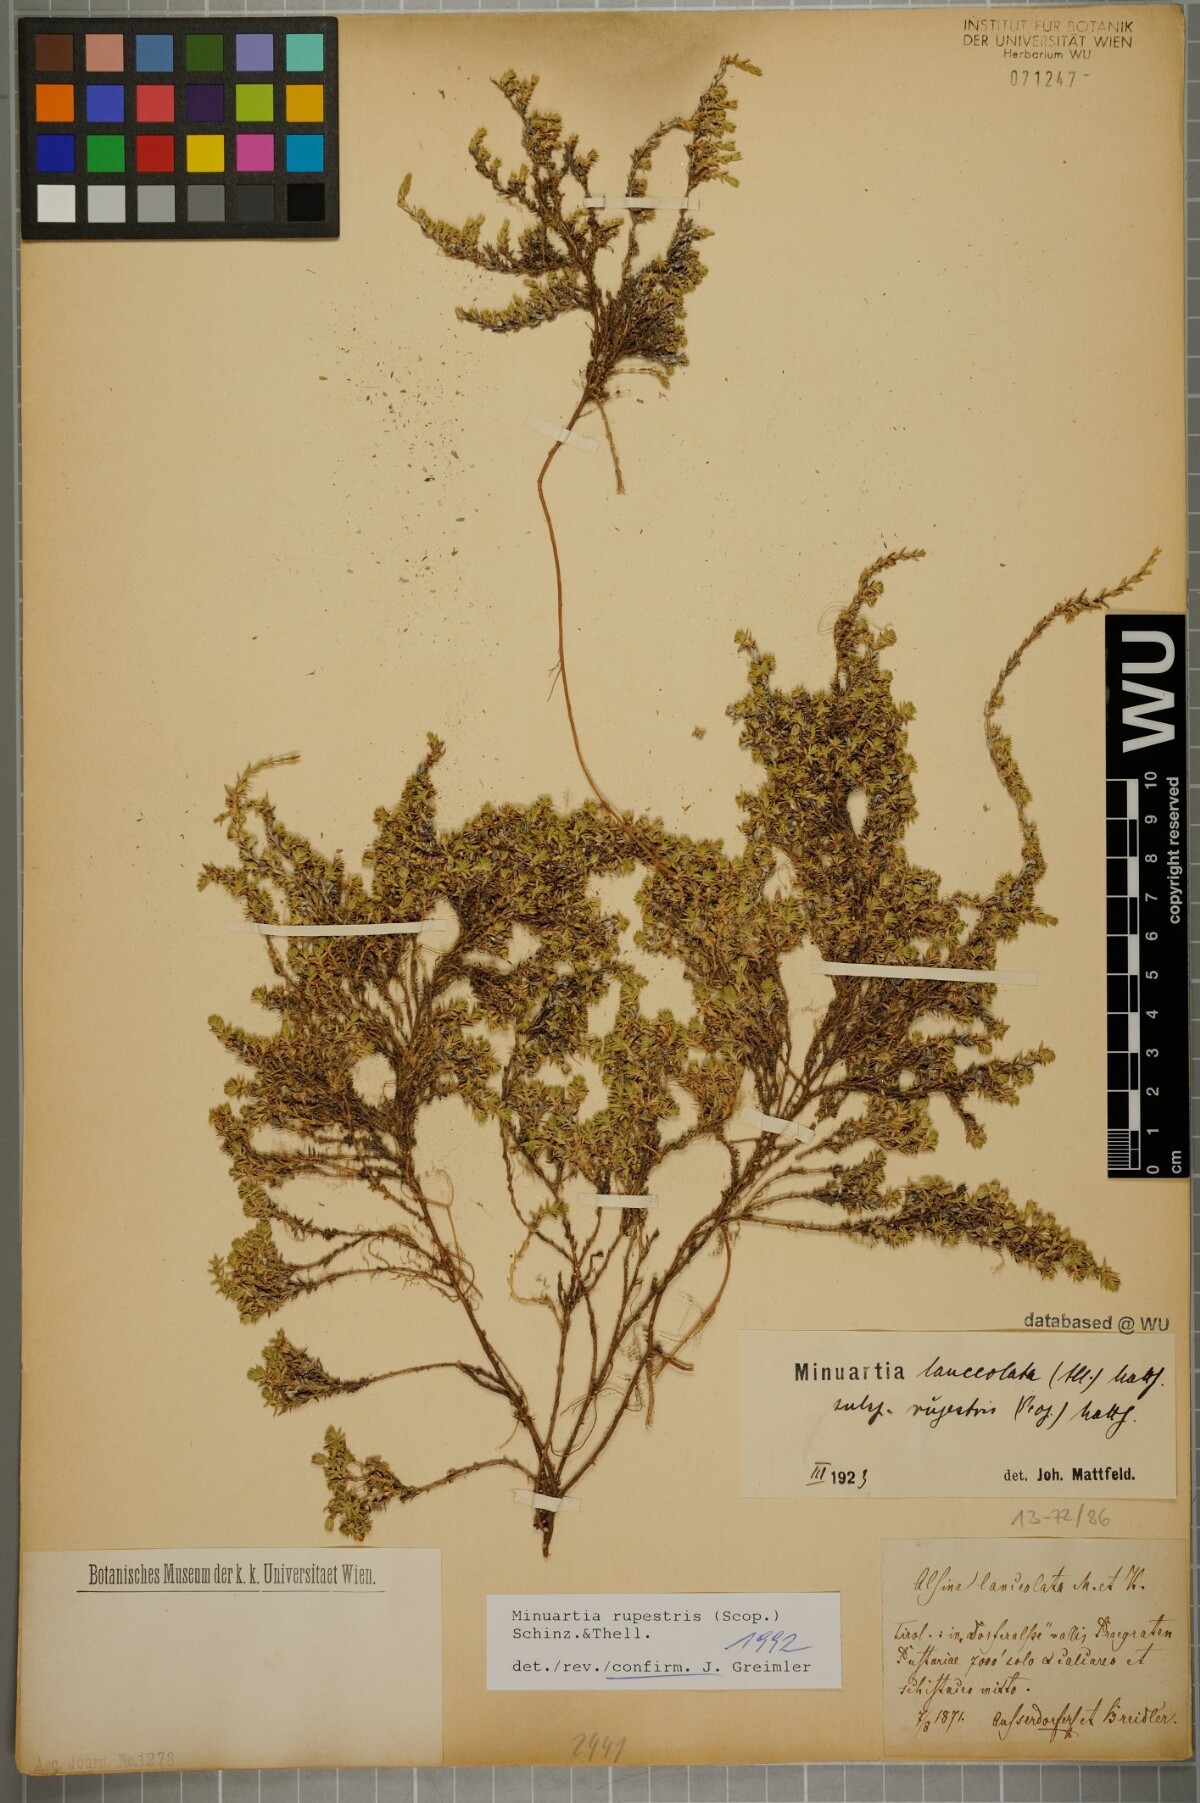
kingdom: Plantae
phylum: Tracheophyta
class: Magnoliopsida
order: Caryophyllales
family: Caryophyllaceae
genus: Facchinia
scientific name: Facchinia rupestris
